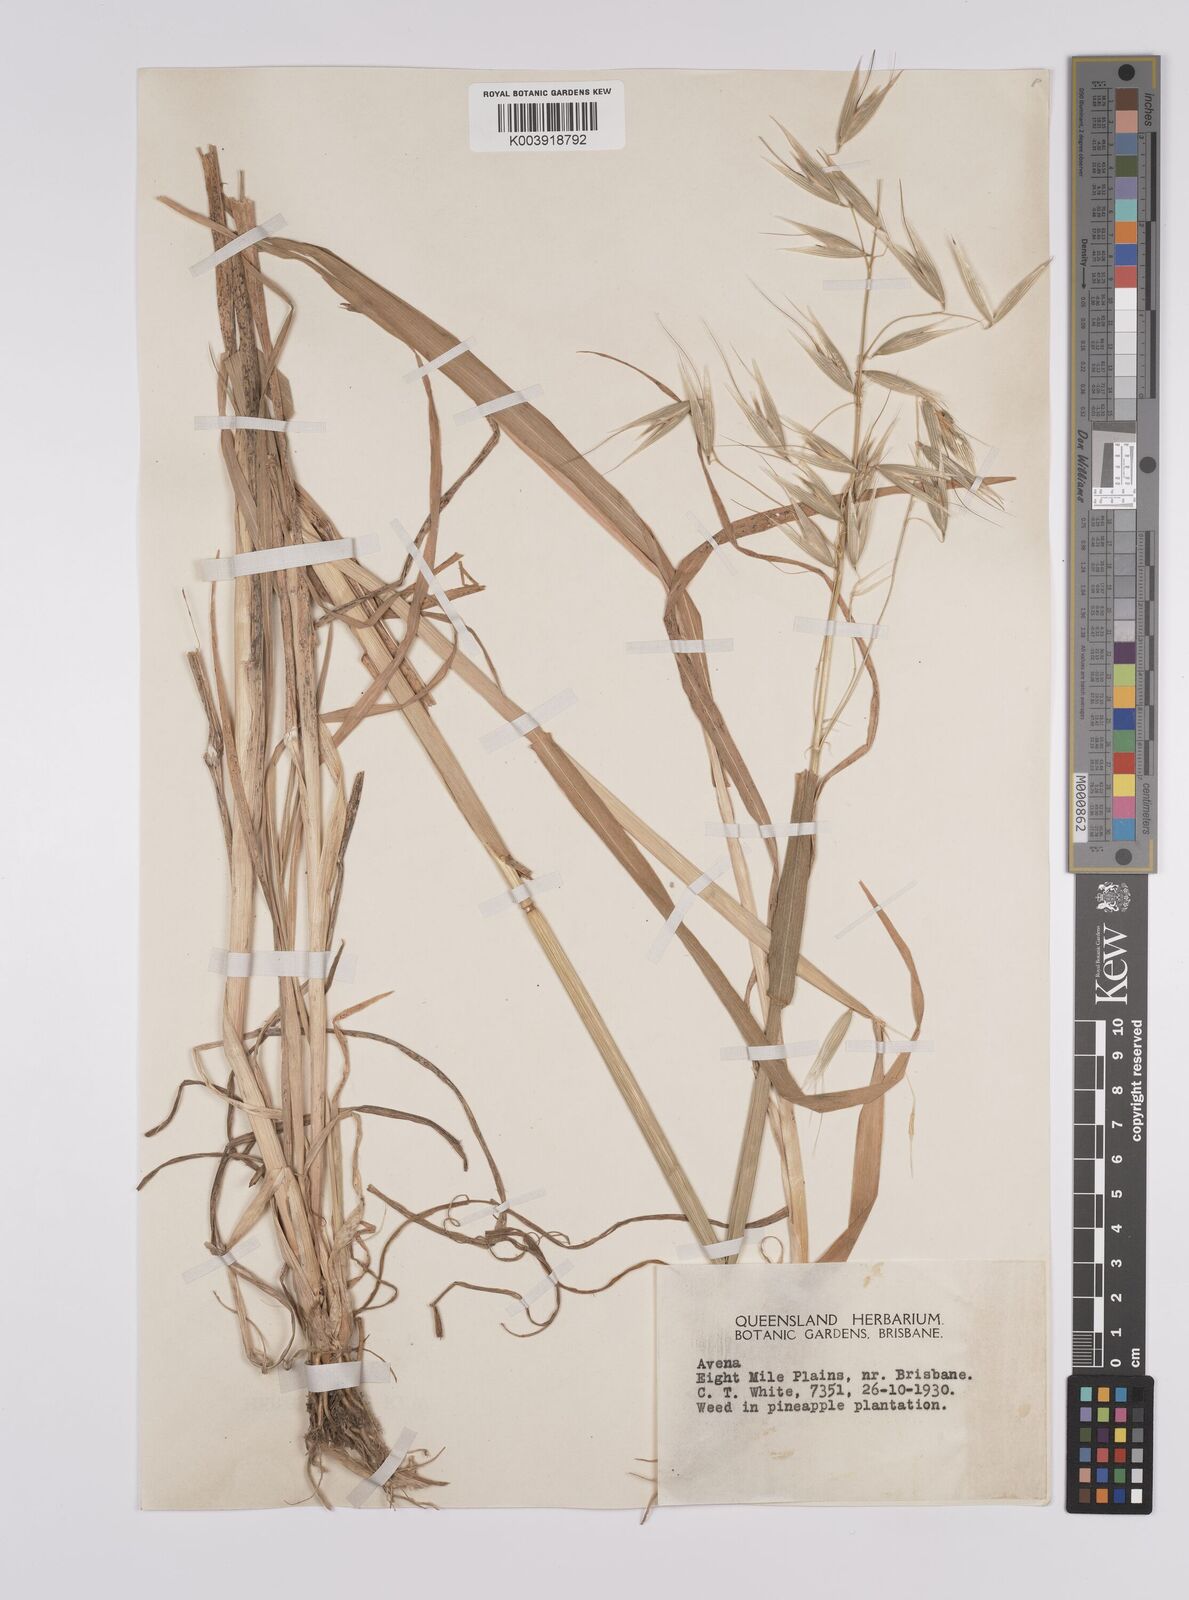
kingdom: Plantae
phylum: Tracheophyta
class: Liliopsida
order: Poales
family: Poaceae
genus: Avena
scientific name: Avena byzantina
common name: Algerian oat
